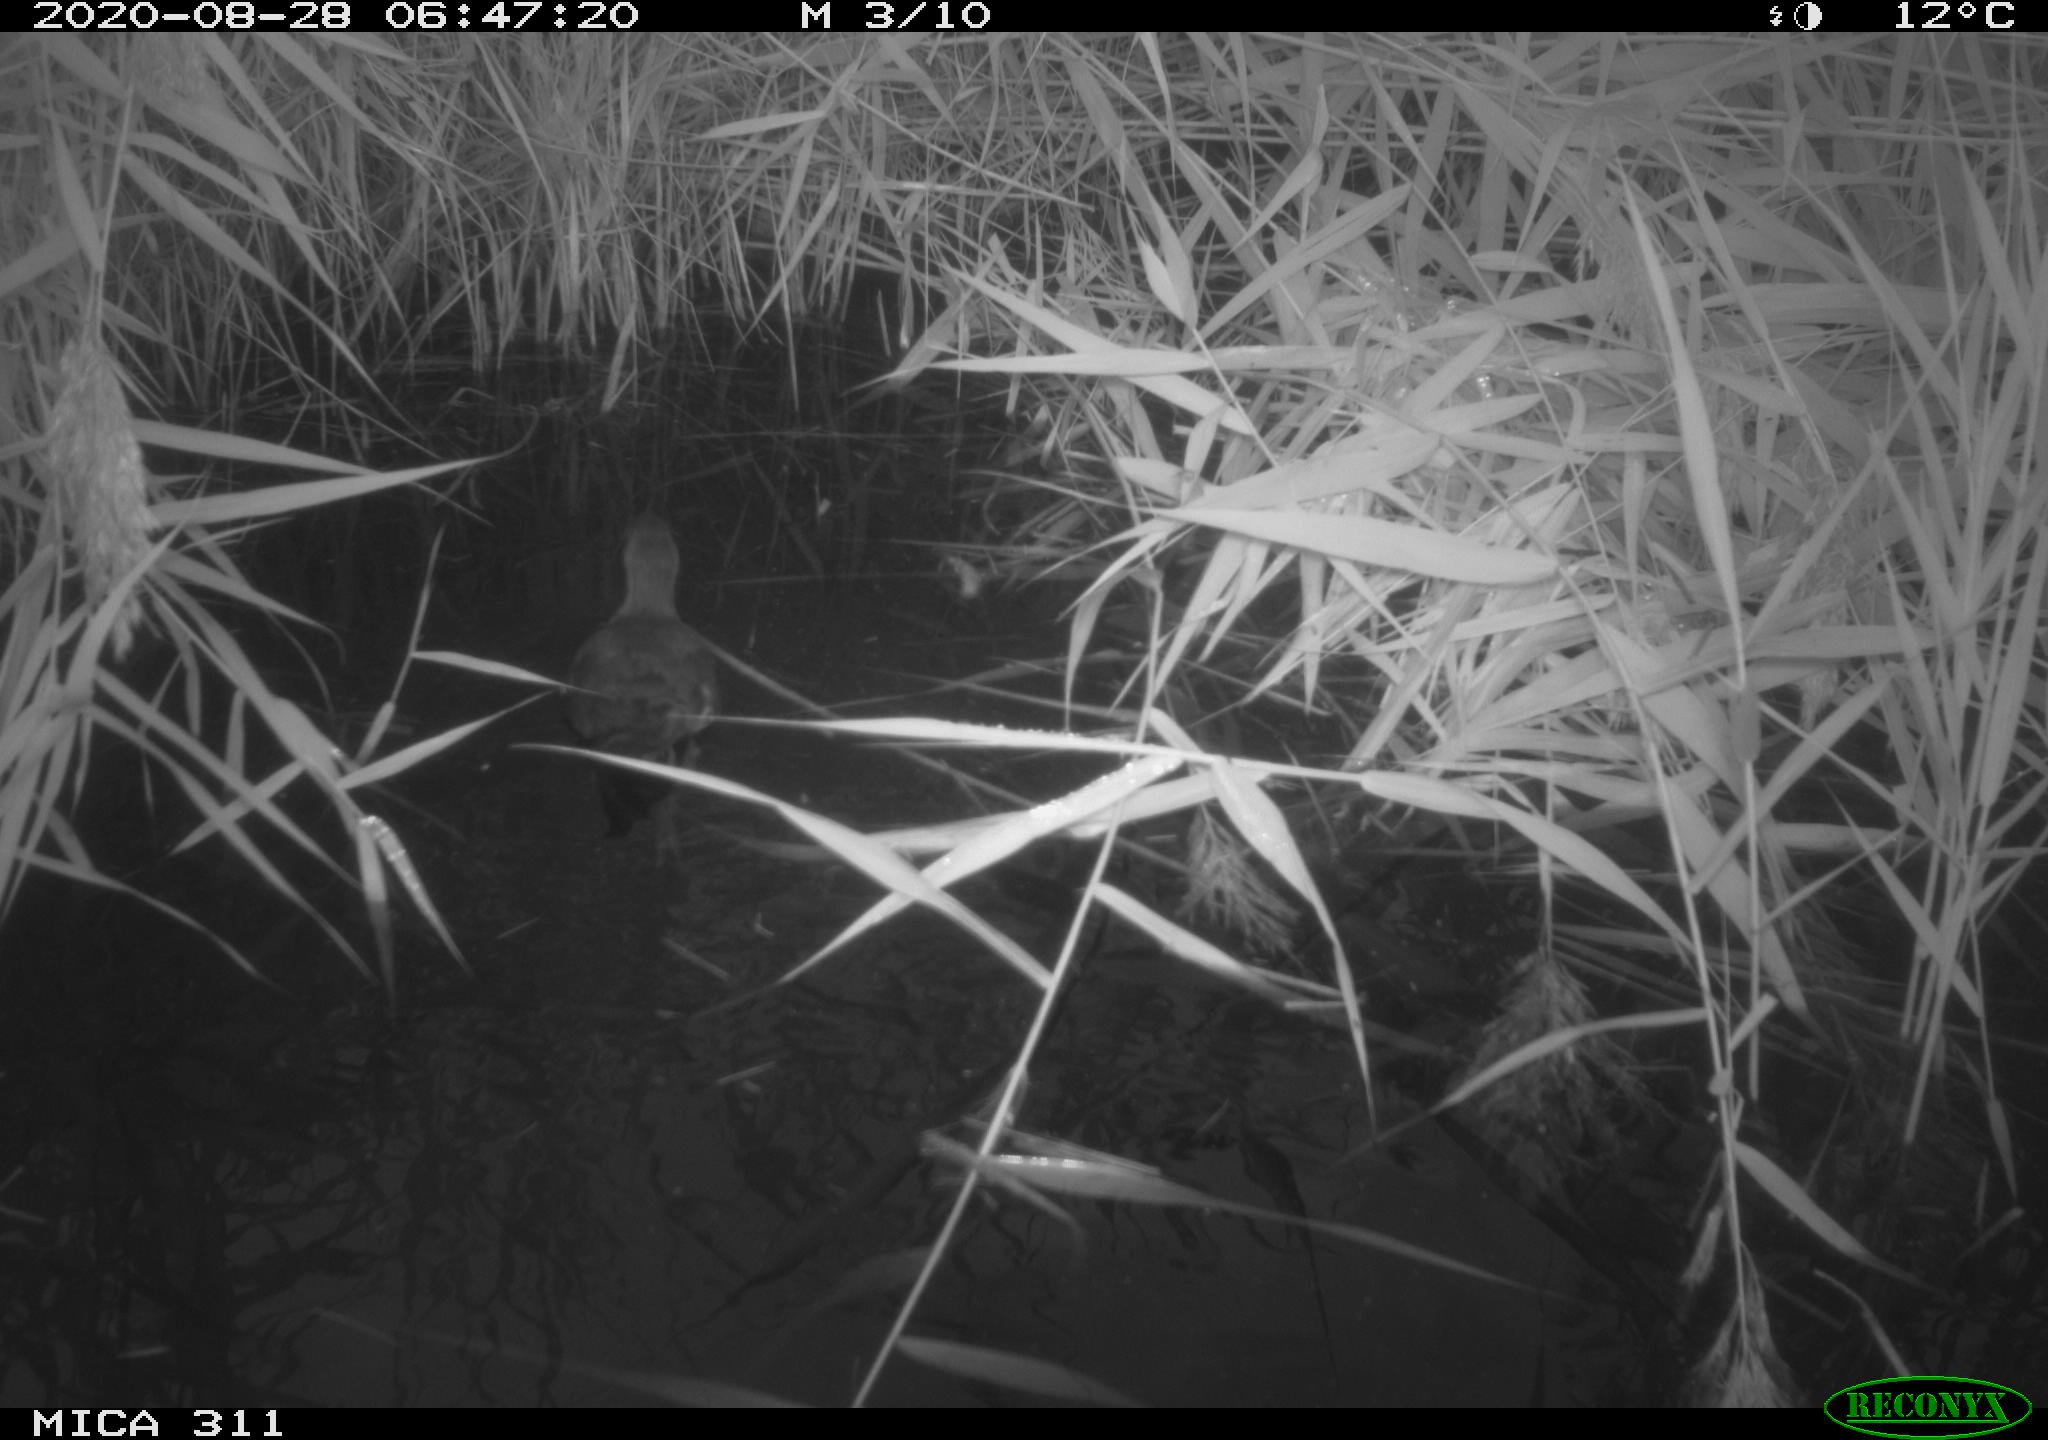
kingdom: Animalia
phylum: Chordata
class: Aves
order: Gruiformes
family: Rallidae
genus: Gallinula
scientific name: Gallinula chloropus
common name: Common moorhen
